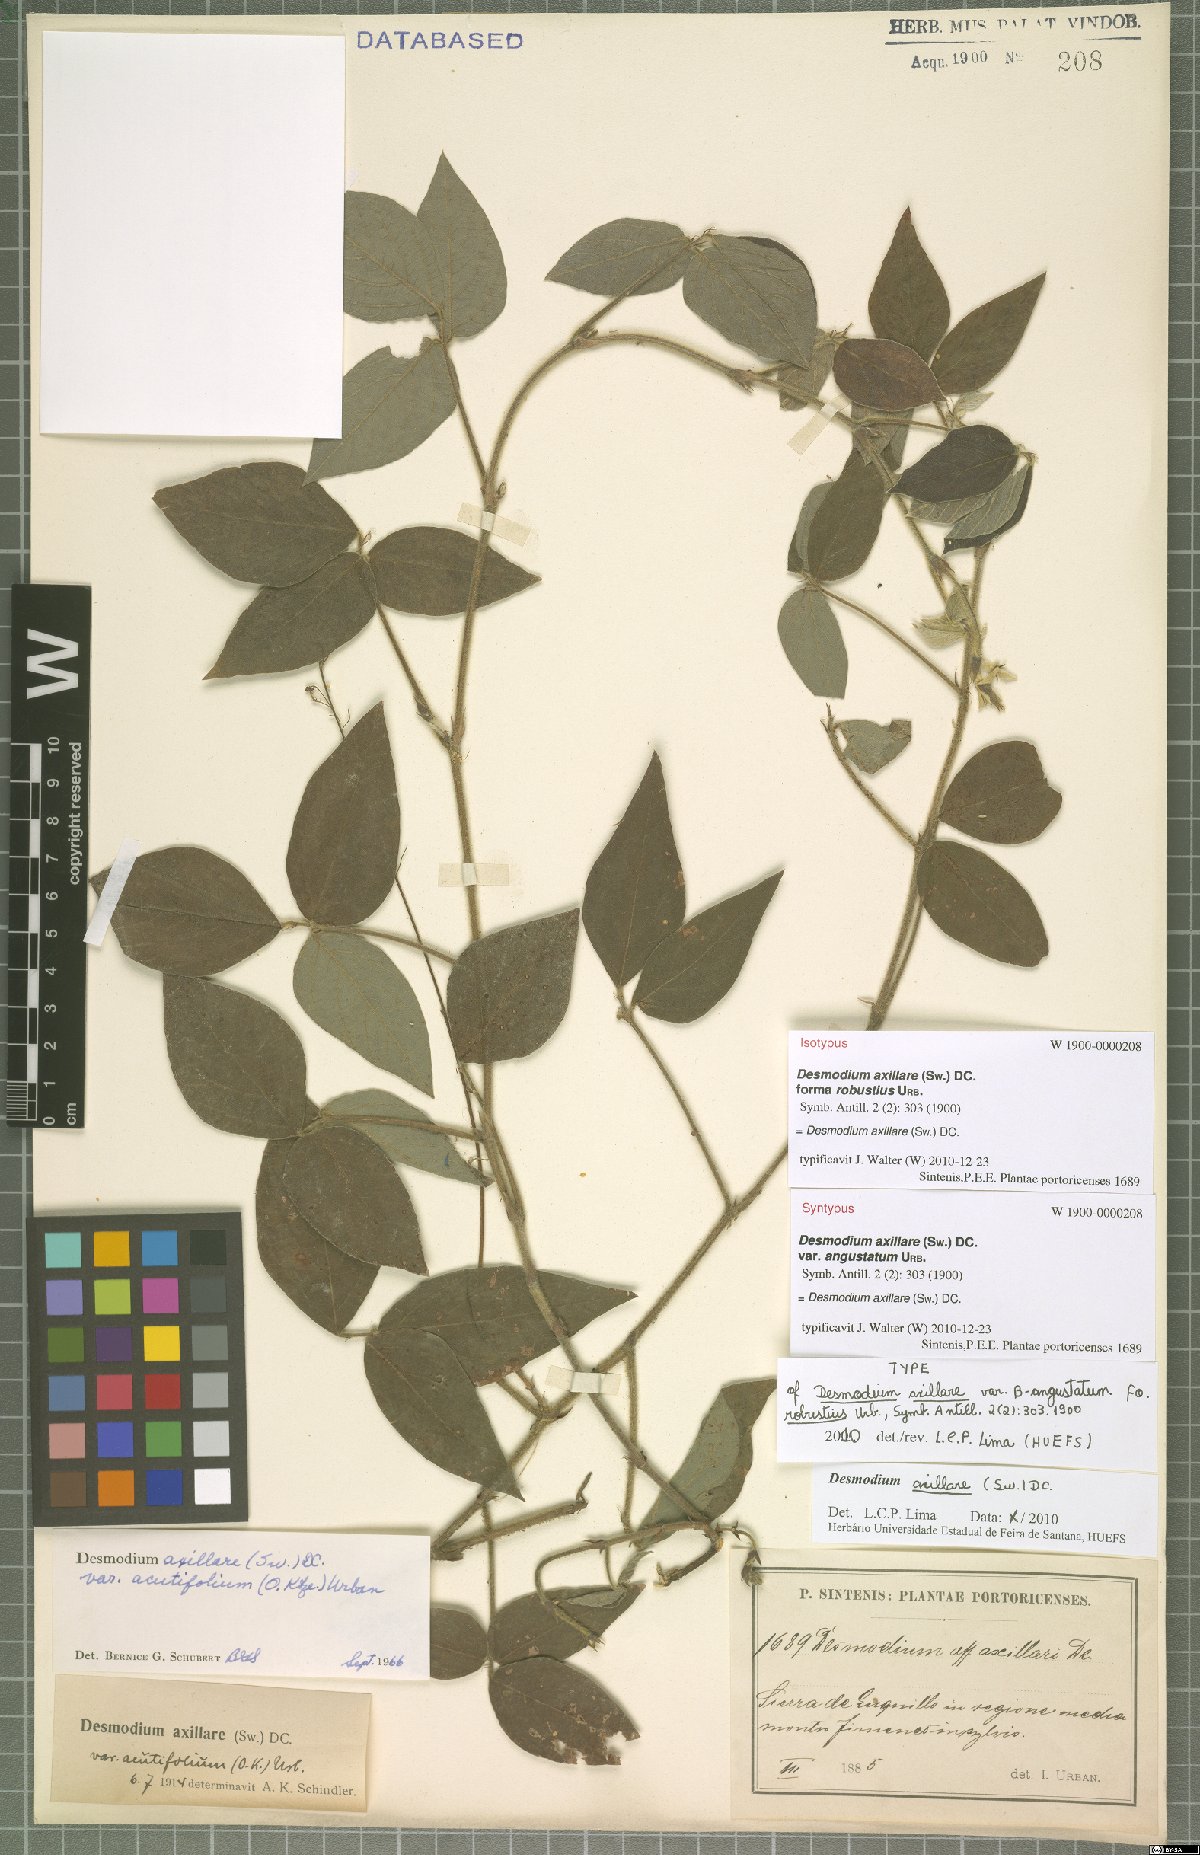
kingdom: Plantae
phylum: Tracheophyta
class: Magnoliopsida
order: Fabales
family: Fabaceae
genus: Desmodium
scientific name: Desmodium axillare
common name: Wire with
